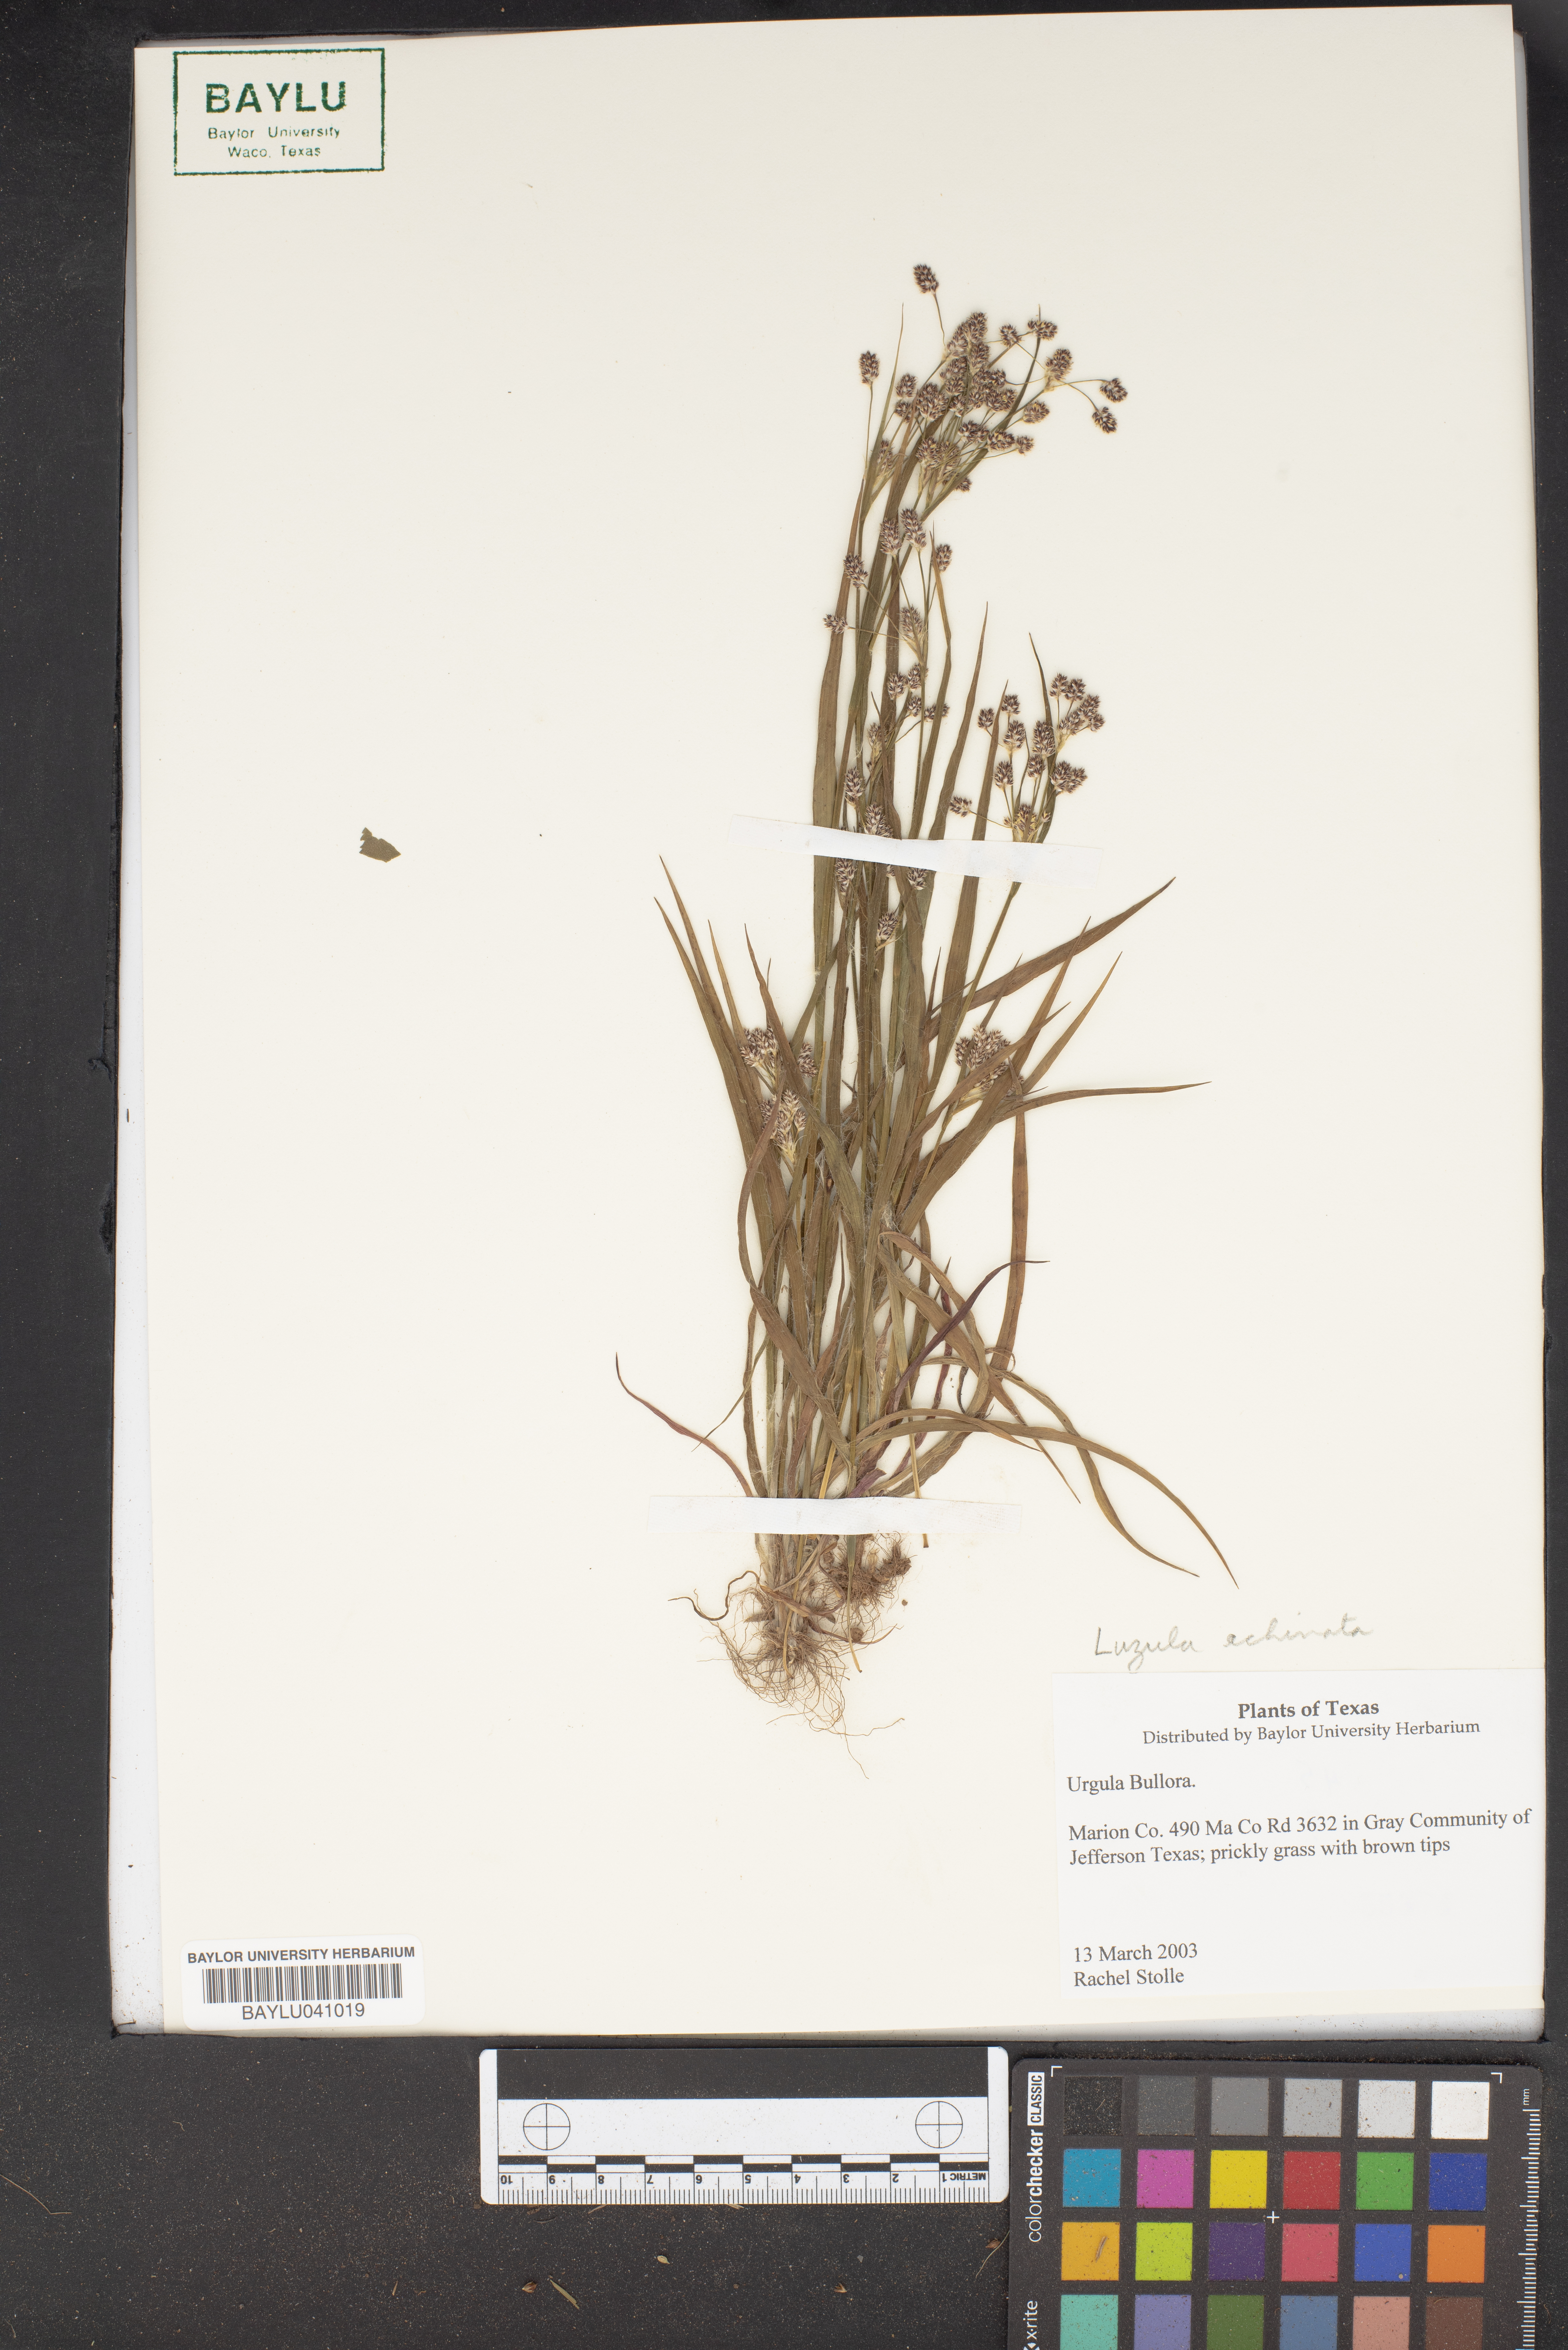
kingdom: Plantae
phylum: Tracheophyta
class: Liliopsida
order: Poales
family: Juncaceae
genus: Luzula
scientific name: Luzula echinata
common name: Hedgehog woodrush
